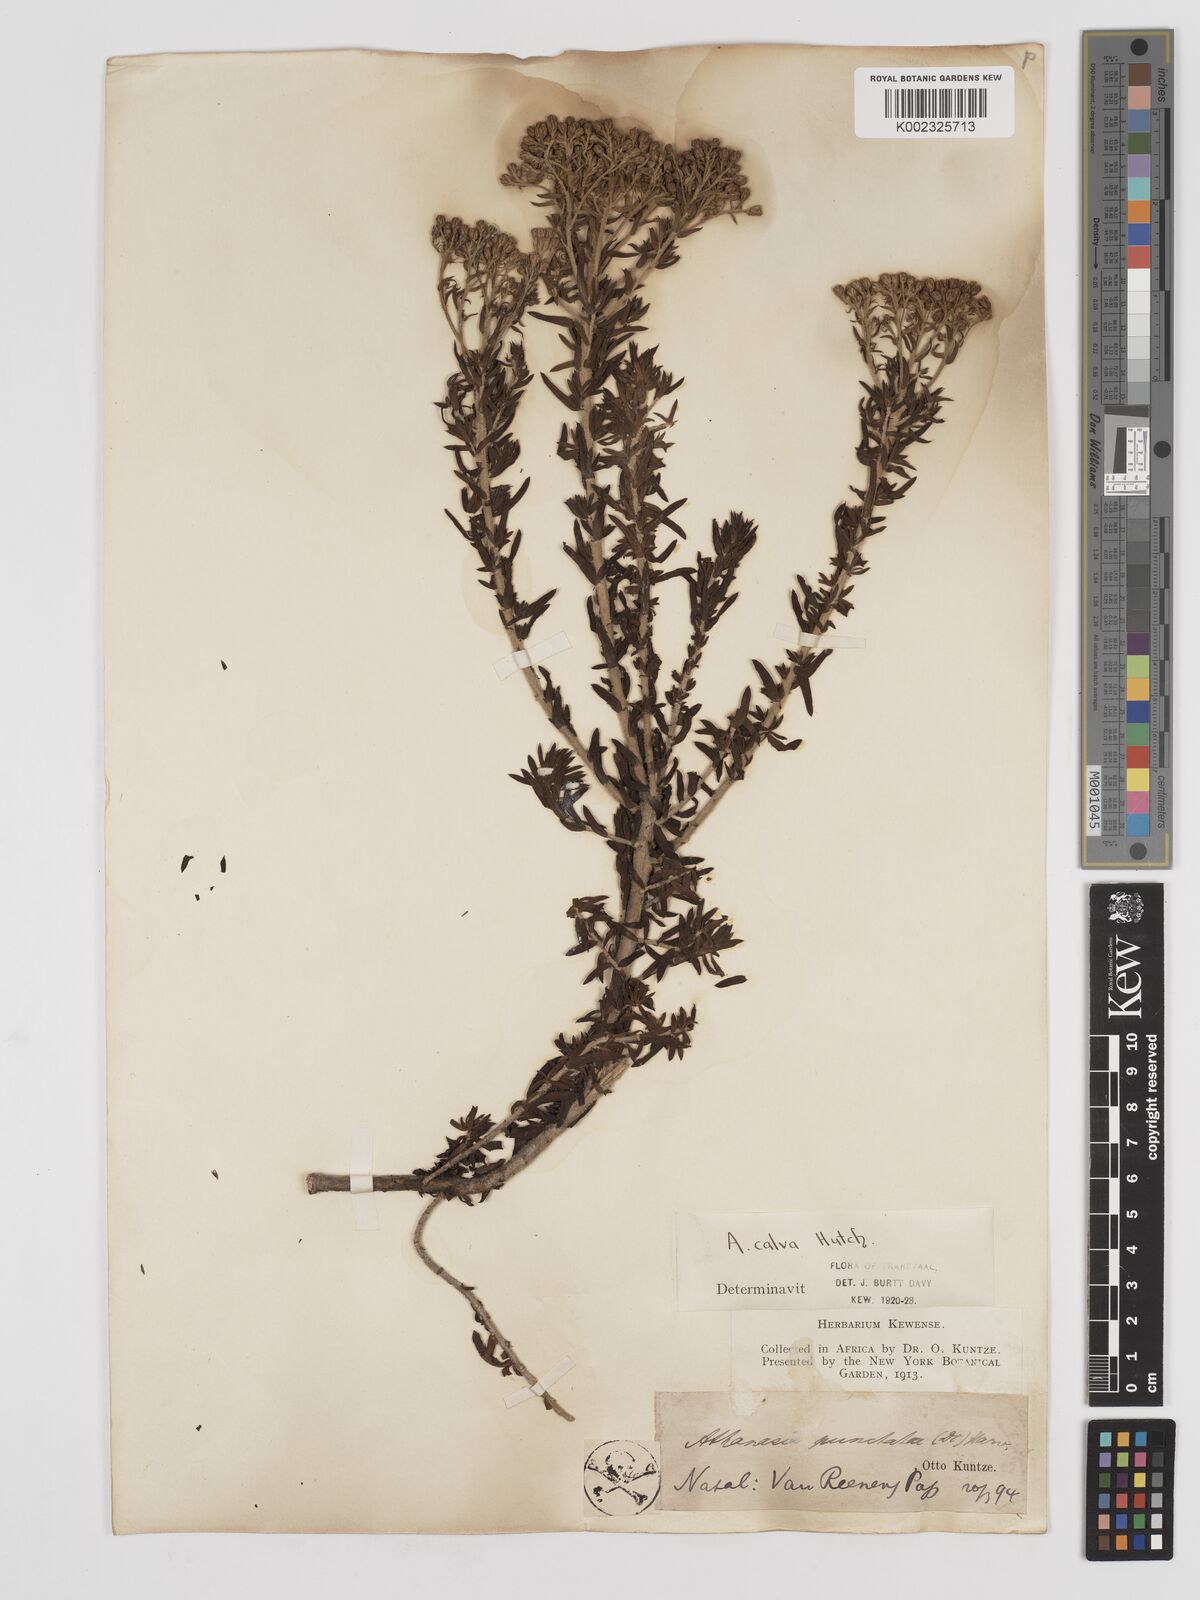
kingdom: Plantae
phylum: Tracheophyta
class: Magnoliopsida
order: Asterales
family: Asteraceae
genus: Inulanthera
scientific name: Inulanthera dregeana
